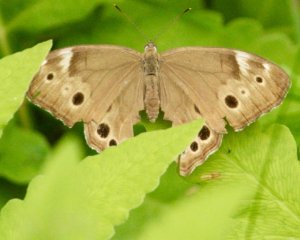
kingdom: Animalia
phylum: Arthropoda
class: Insecta
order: Lepidoptera
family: Nymphalidae
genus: Lethe
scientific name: Lethe anthedon
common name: Northern Pearly-Eye
